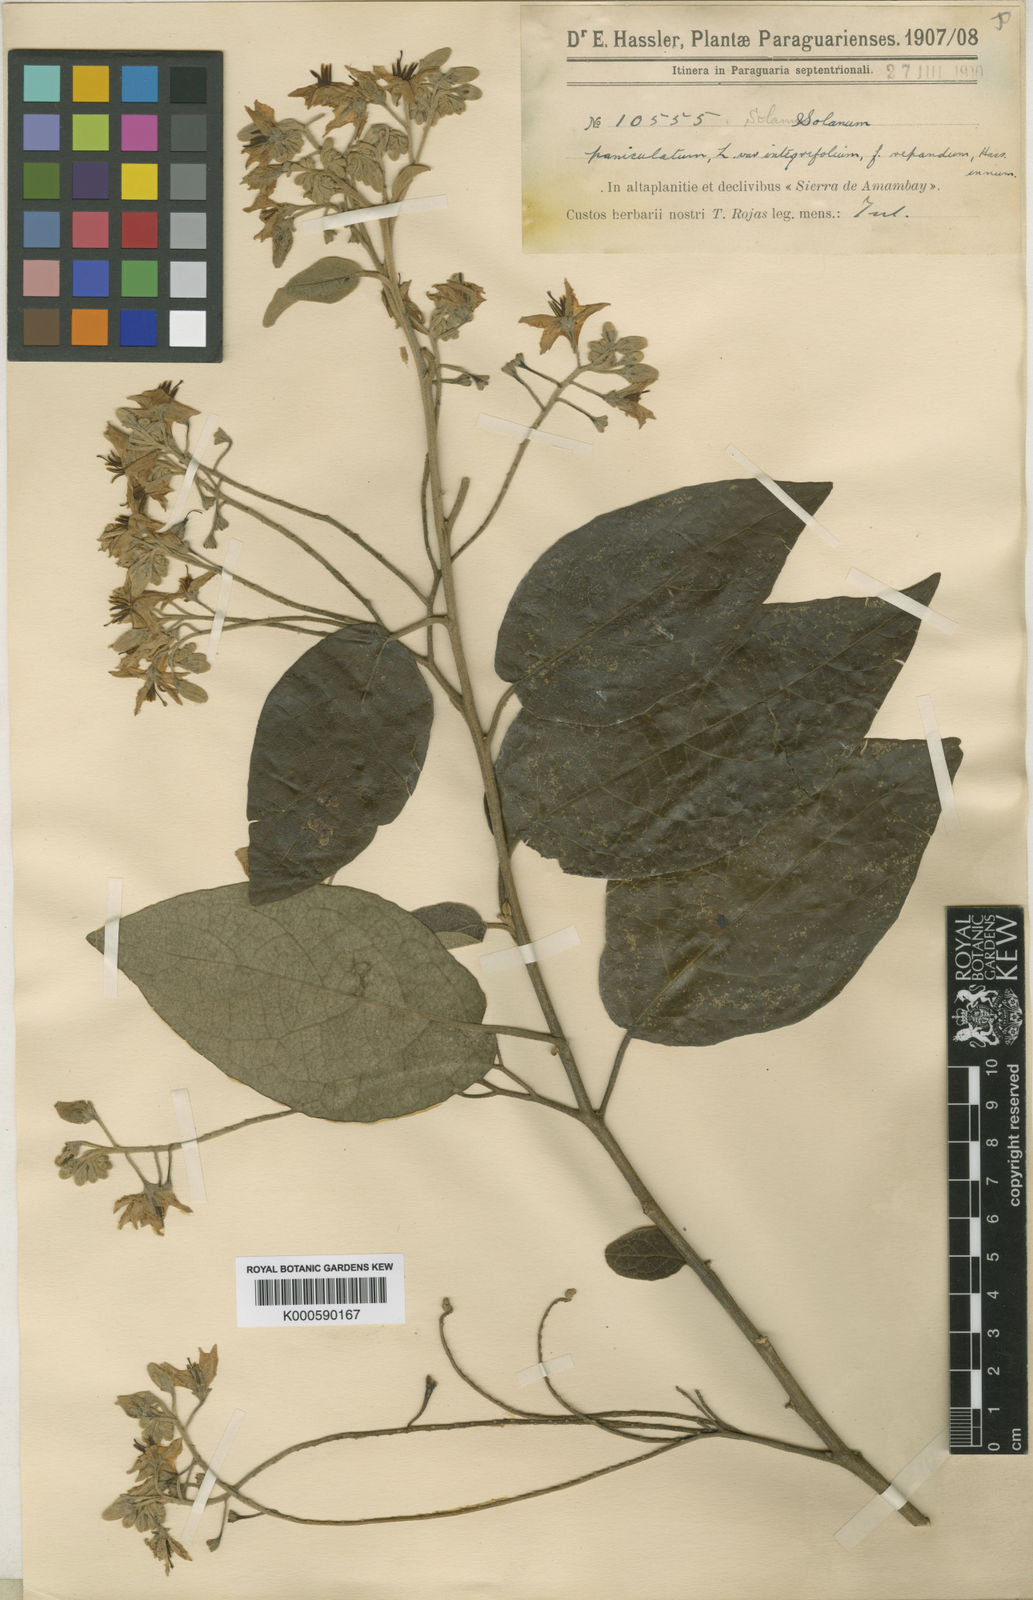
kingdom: Plantae
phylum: Tracheophyta
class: Magnoliopsida
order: Solanales
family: Solanaceae
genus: Solanum
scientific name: Solanum paniculatum
